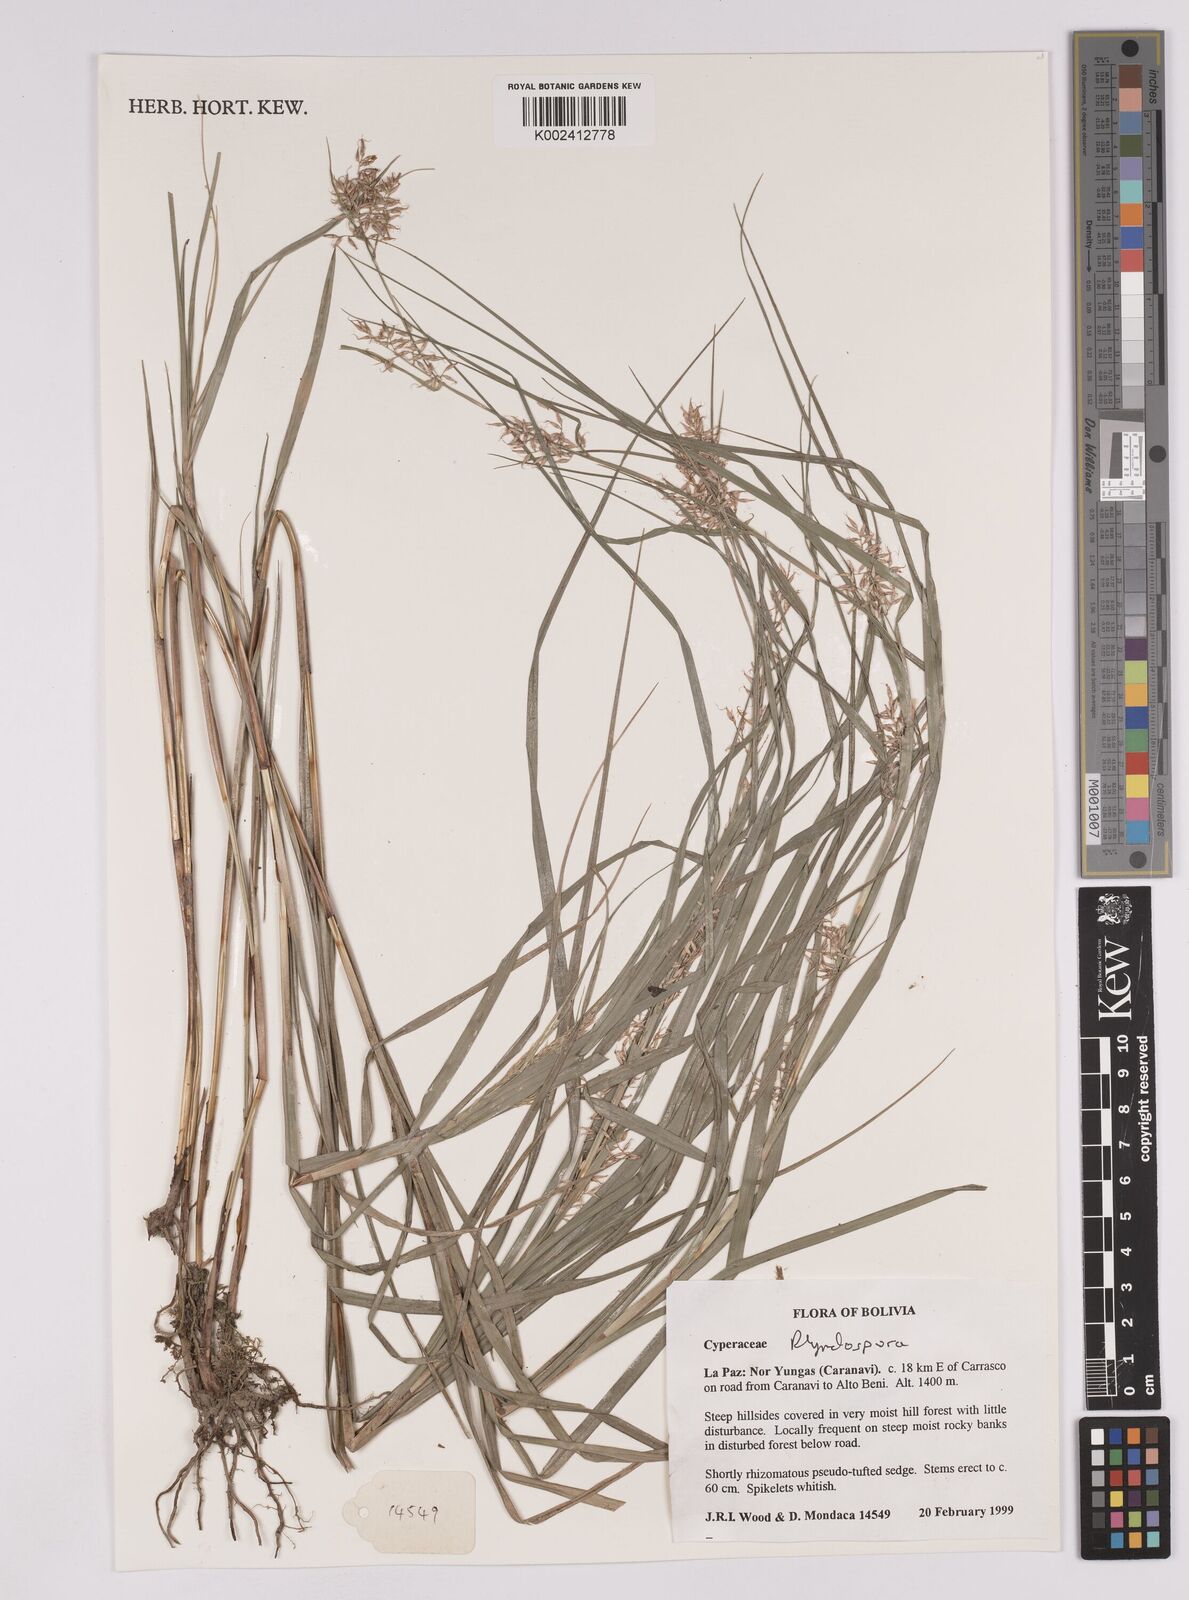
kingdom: Plantae
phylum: Tracheophyta
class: Liliopsida
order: Poales
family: Cyperaceae
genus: Rhynchospora
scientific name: Rhynchospora
